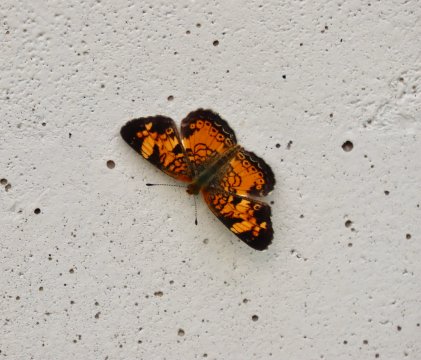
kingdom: Animalia
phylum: Arthropoda
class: Insecta
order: Lepidoptera
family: Nymphalidae
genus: Phyciodes
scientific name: Phyciodes tharos
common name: Pearl Crescent
